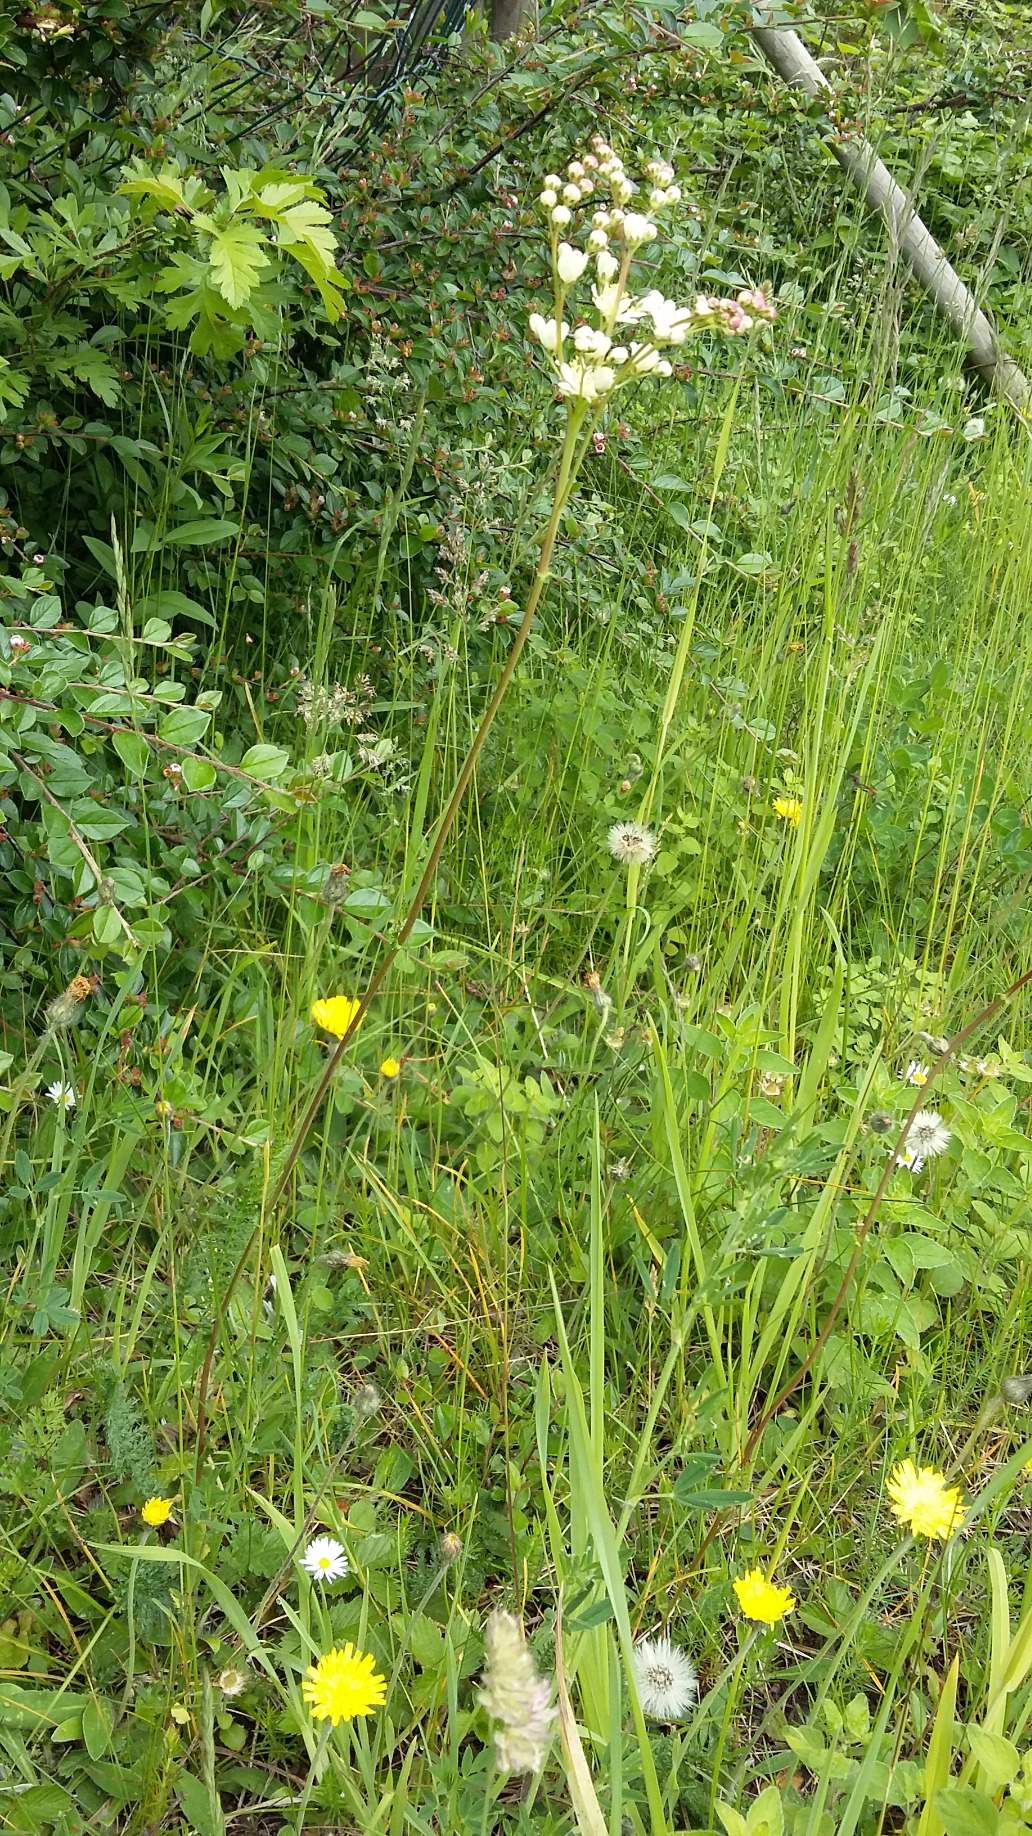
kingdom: Plantae
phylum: Tracheophyta
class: Magnoliopsida
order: Rosales
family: Rosaceae
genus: Filipendula
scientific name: Filipendula vulgaris
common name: Knoldet mjødurt
